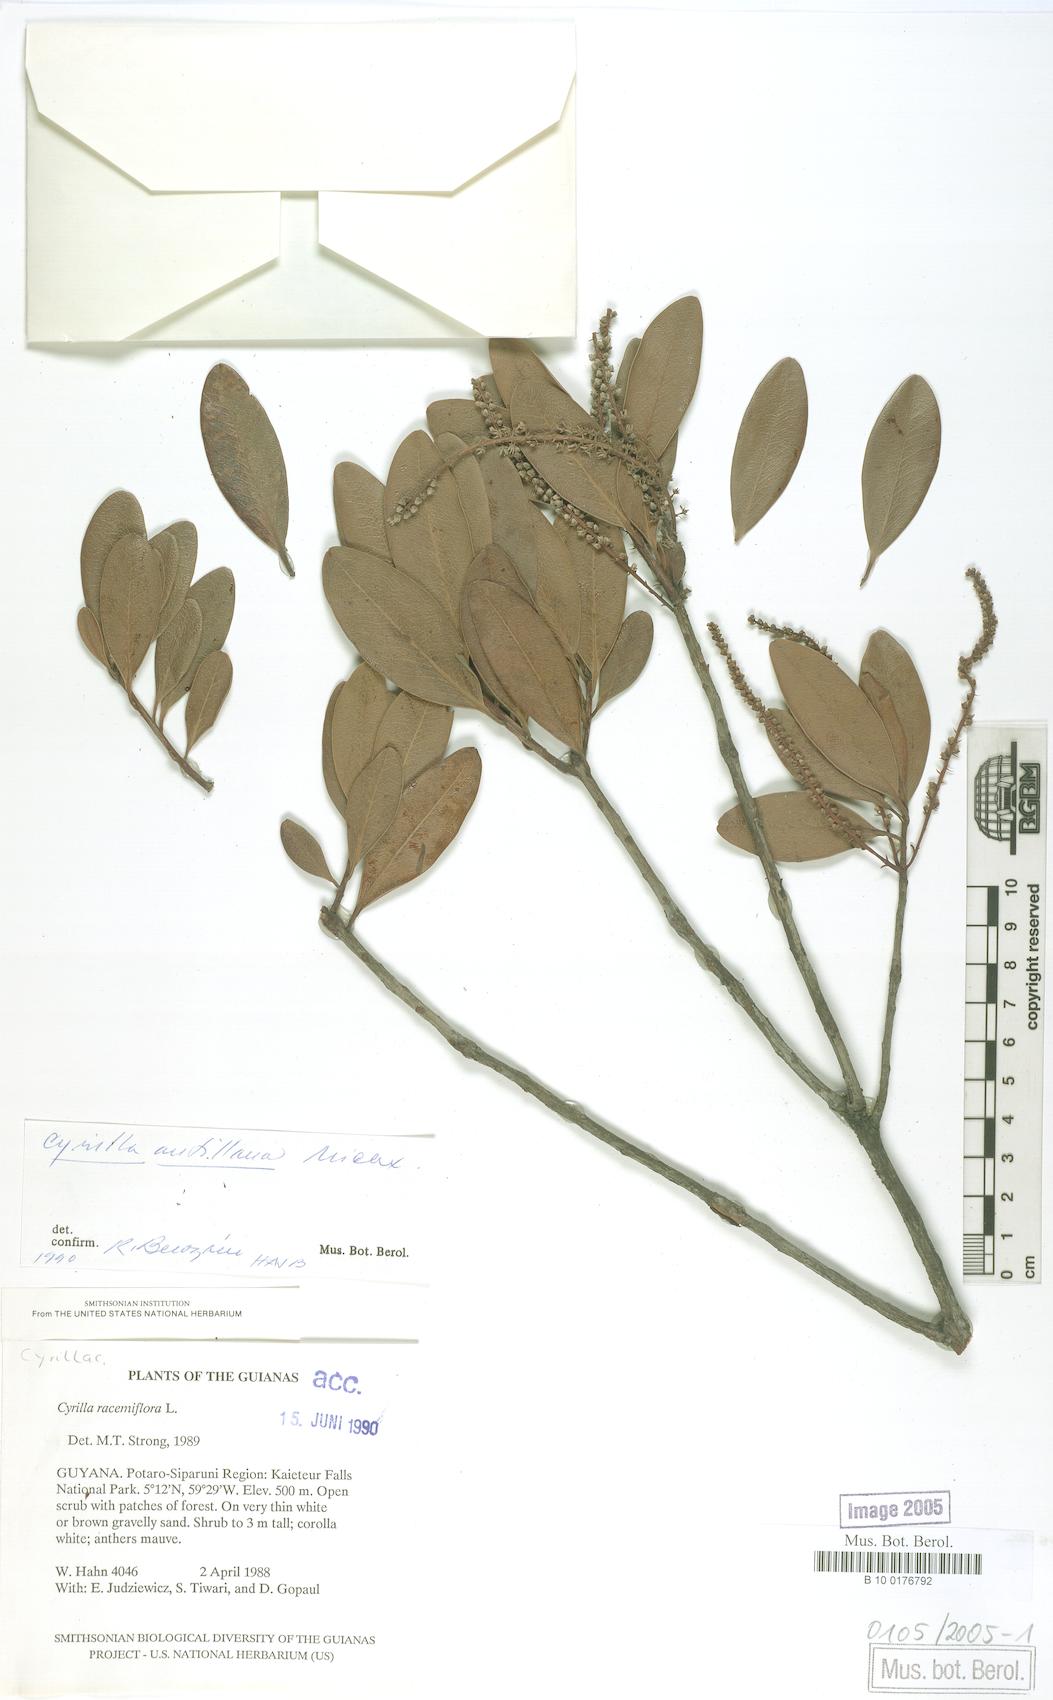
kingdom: Plantae
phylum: Tracheophyta
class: Magnoliopsida
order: Ericales
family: Cyrillaceae
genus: Cyrilla
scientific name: Cyrilla racemiflora
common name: Black titi
